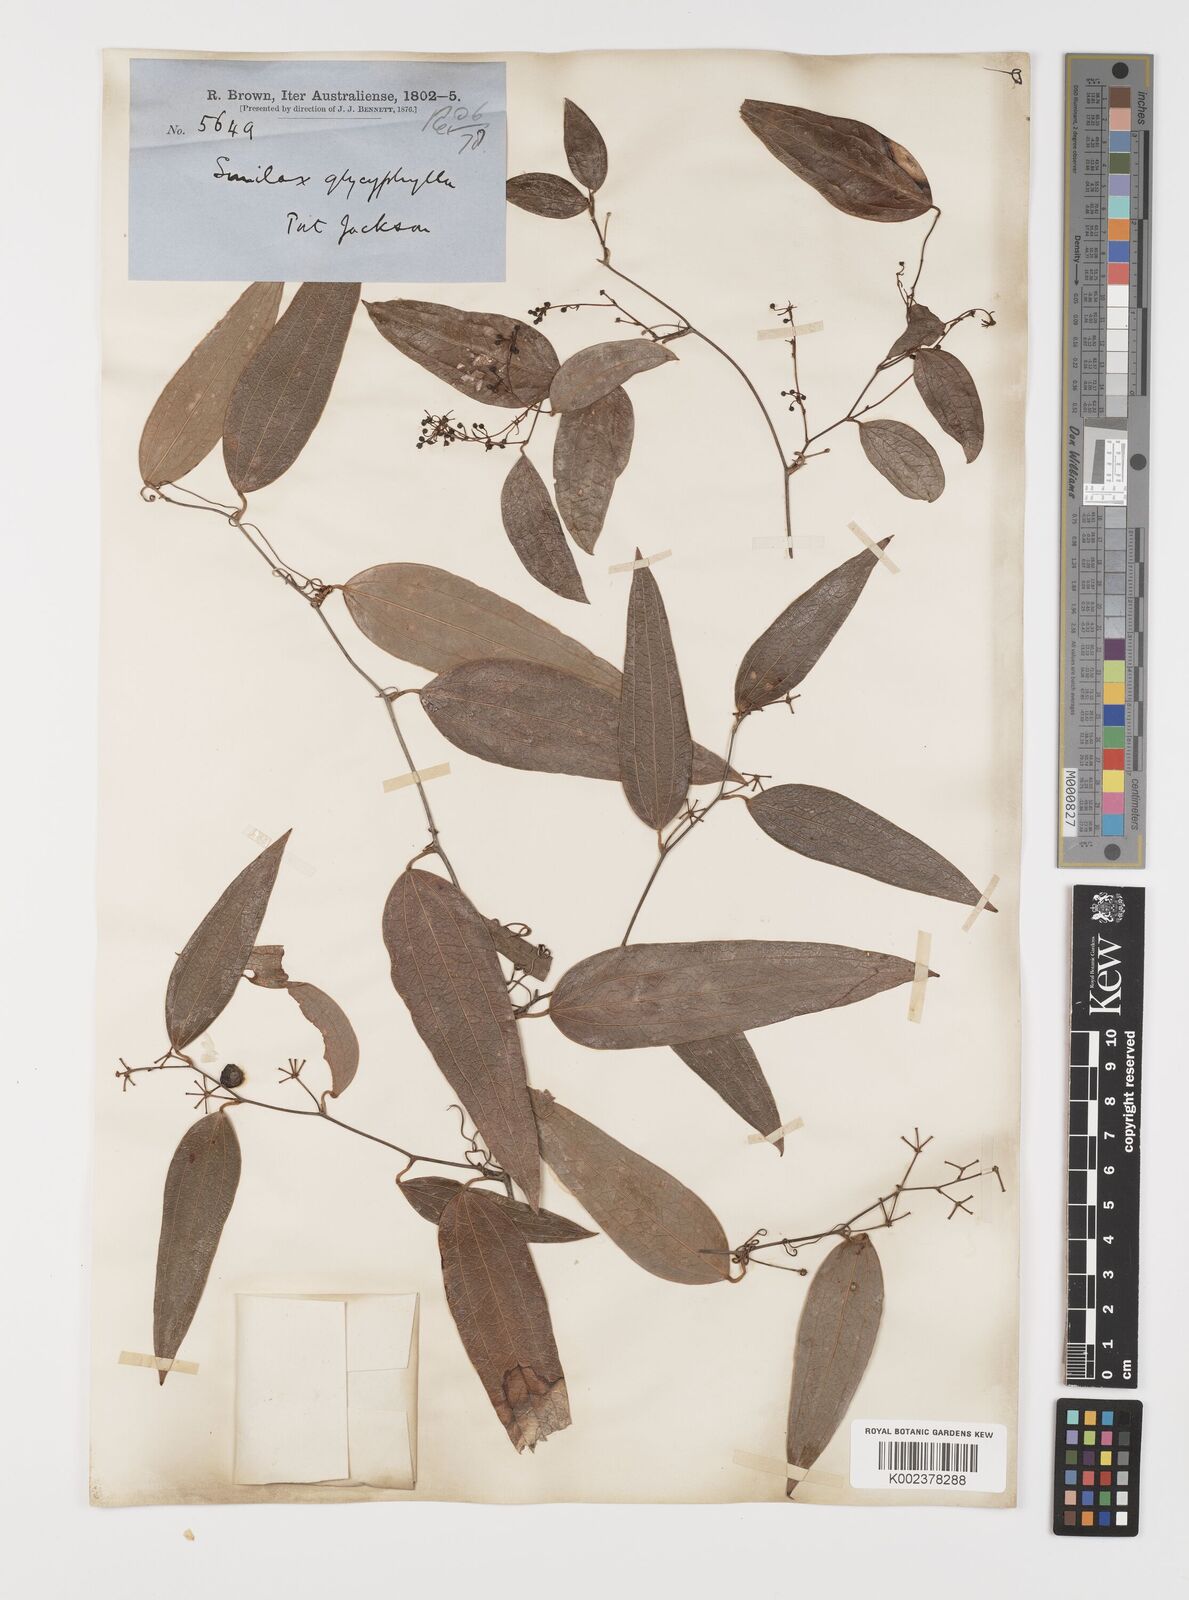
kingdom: Plantae
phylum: Tracheophyta
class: Liliopsida
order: Liliales
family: Smilacaceae
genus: Smilax
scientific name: Smilax leucophylla
